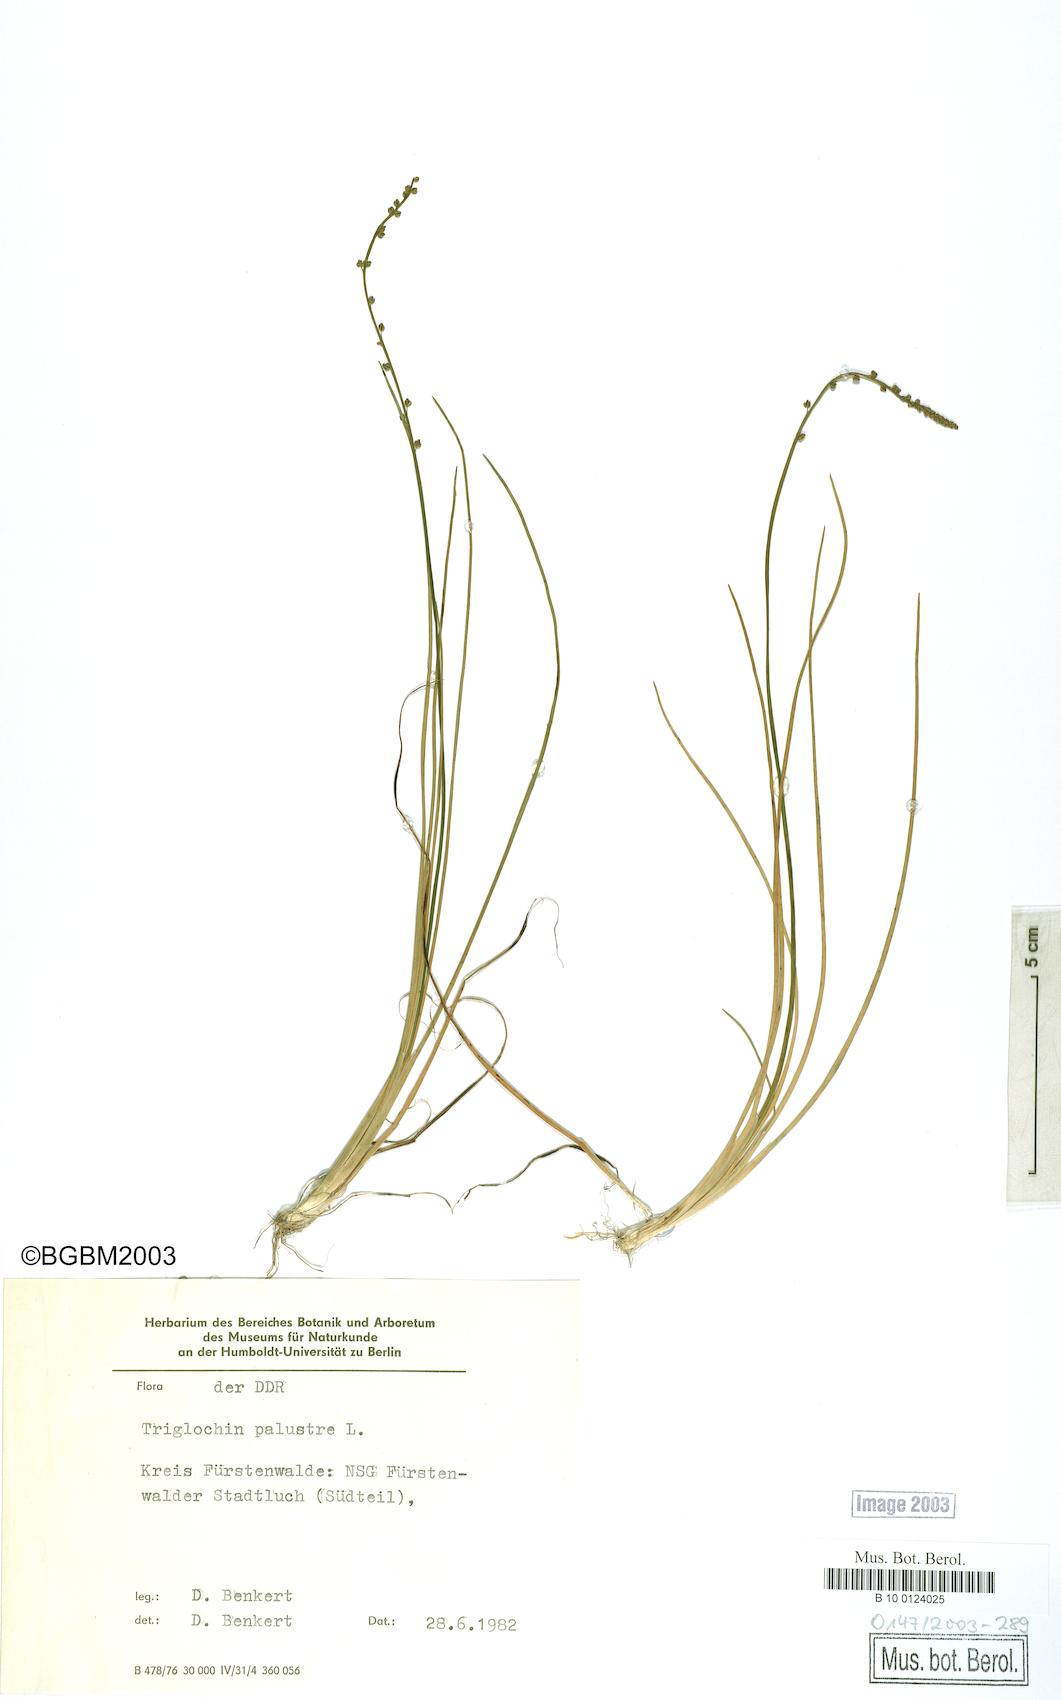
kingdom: Plantae
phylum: Tracheophyta
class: Liliopsida
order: Alismatales
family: Juncaginaceae
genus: Triglochin
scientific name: Triglochin palustris
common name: Marsh arrowgrass
